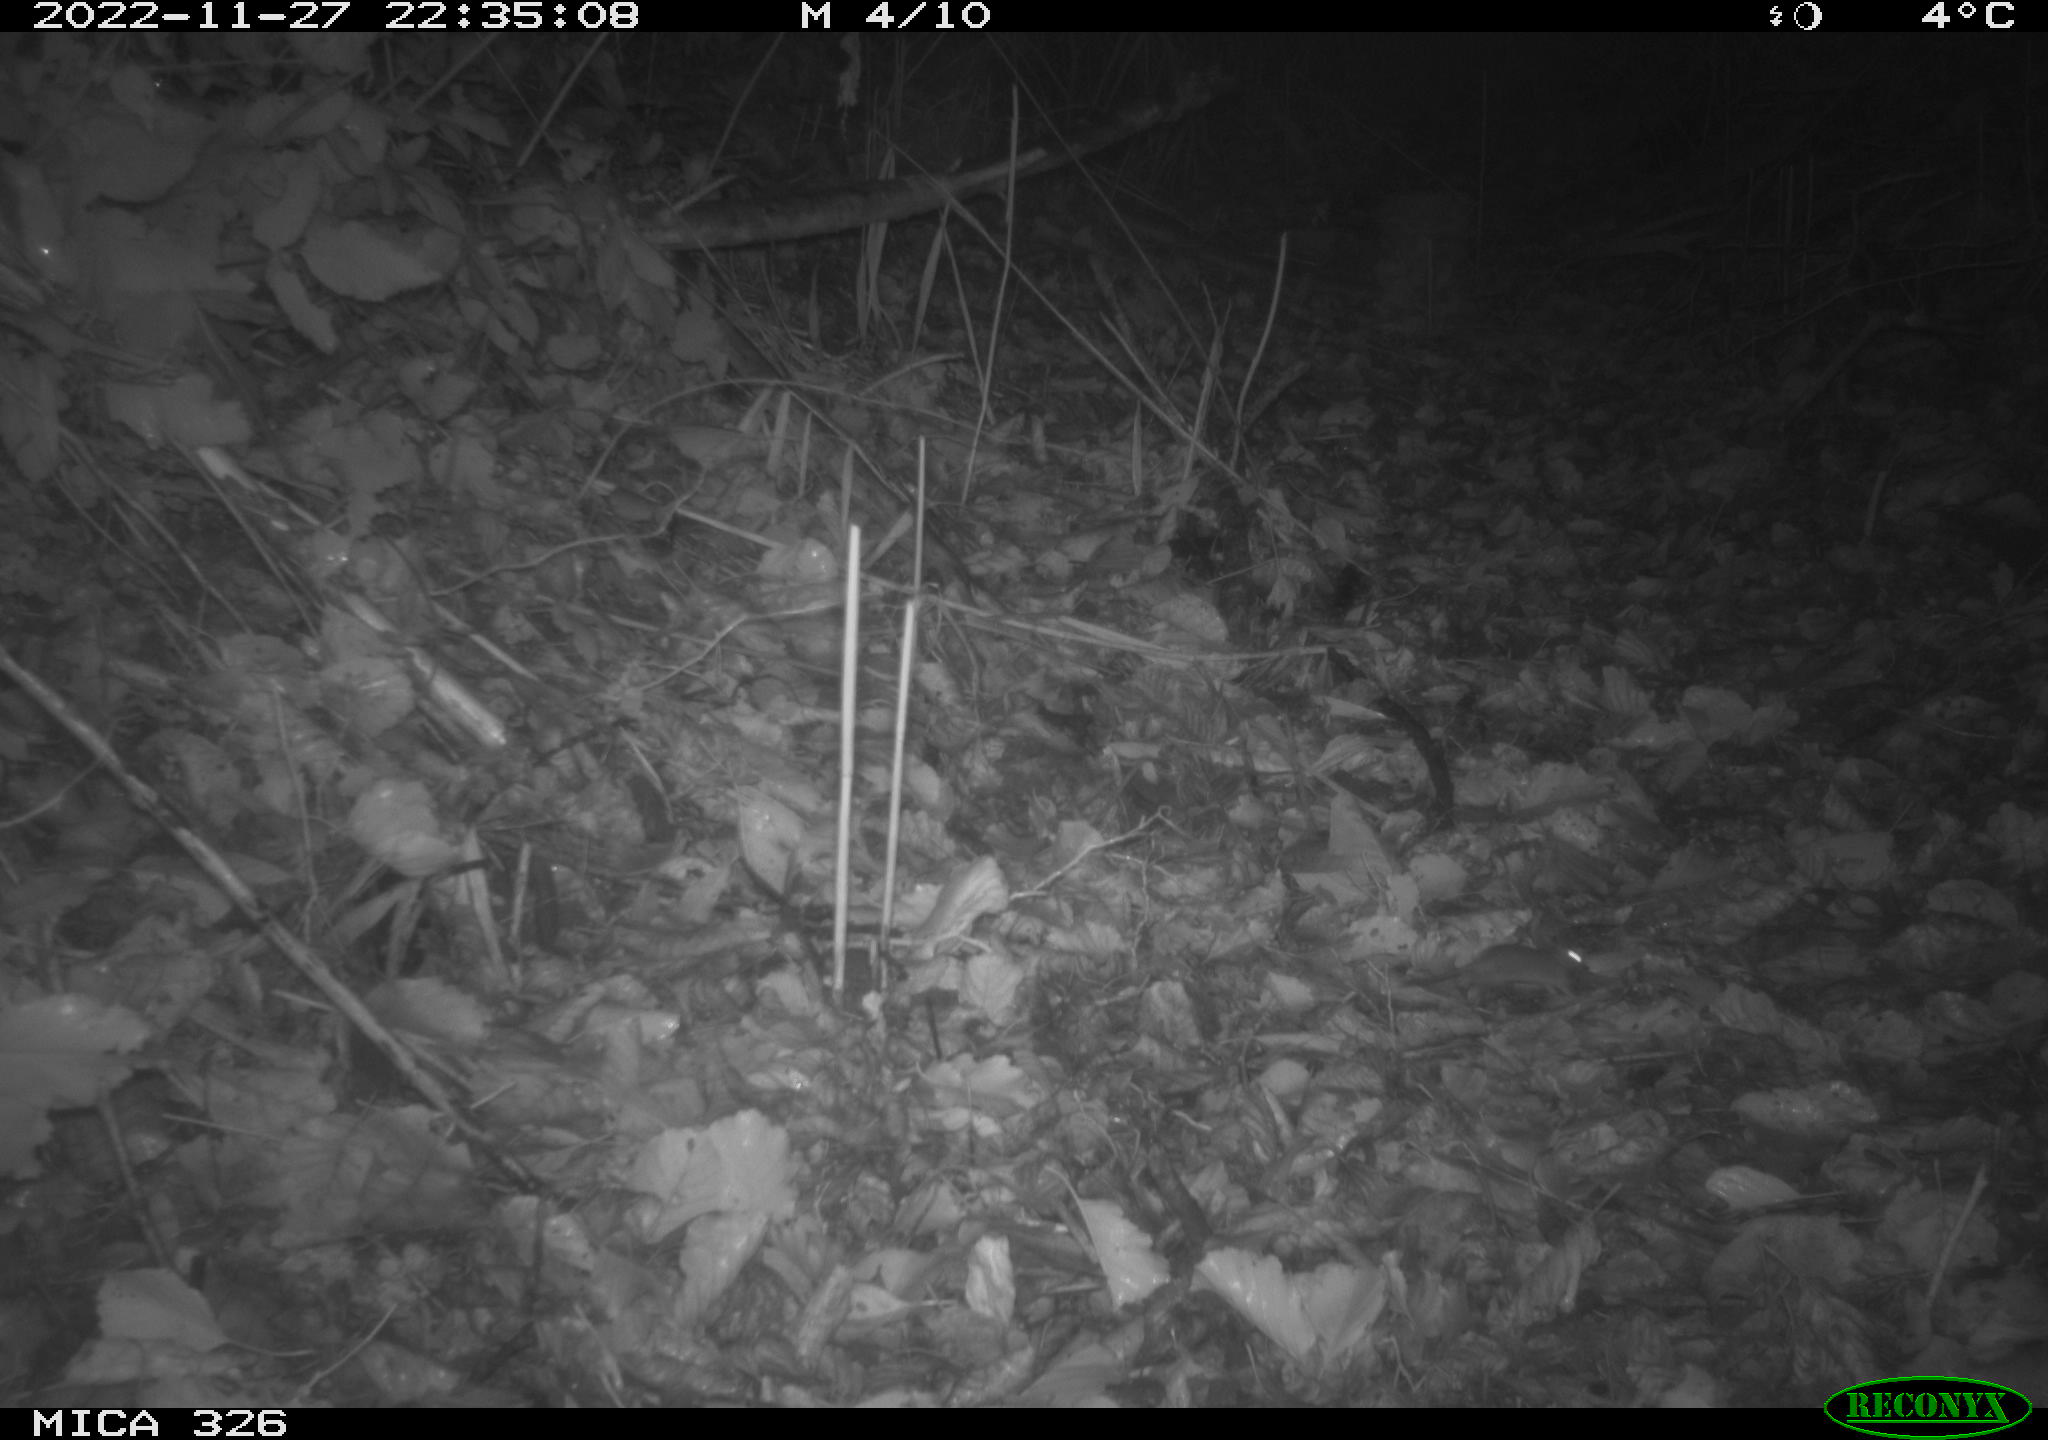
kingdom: Animalia
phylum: Chordata
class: Mammalia
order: Rodentia
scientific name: Rodentia
